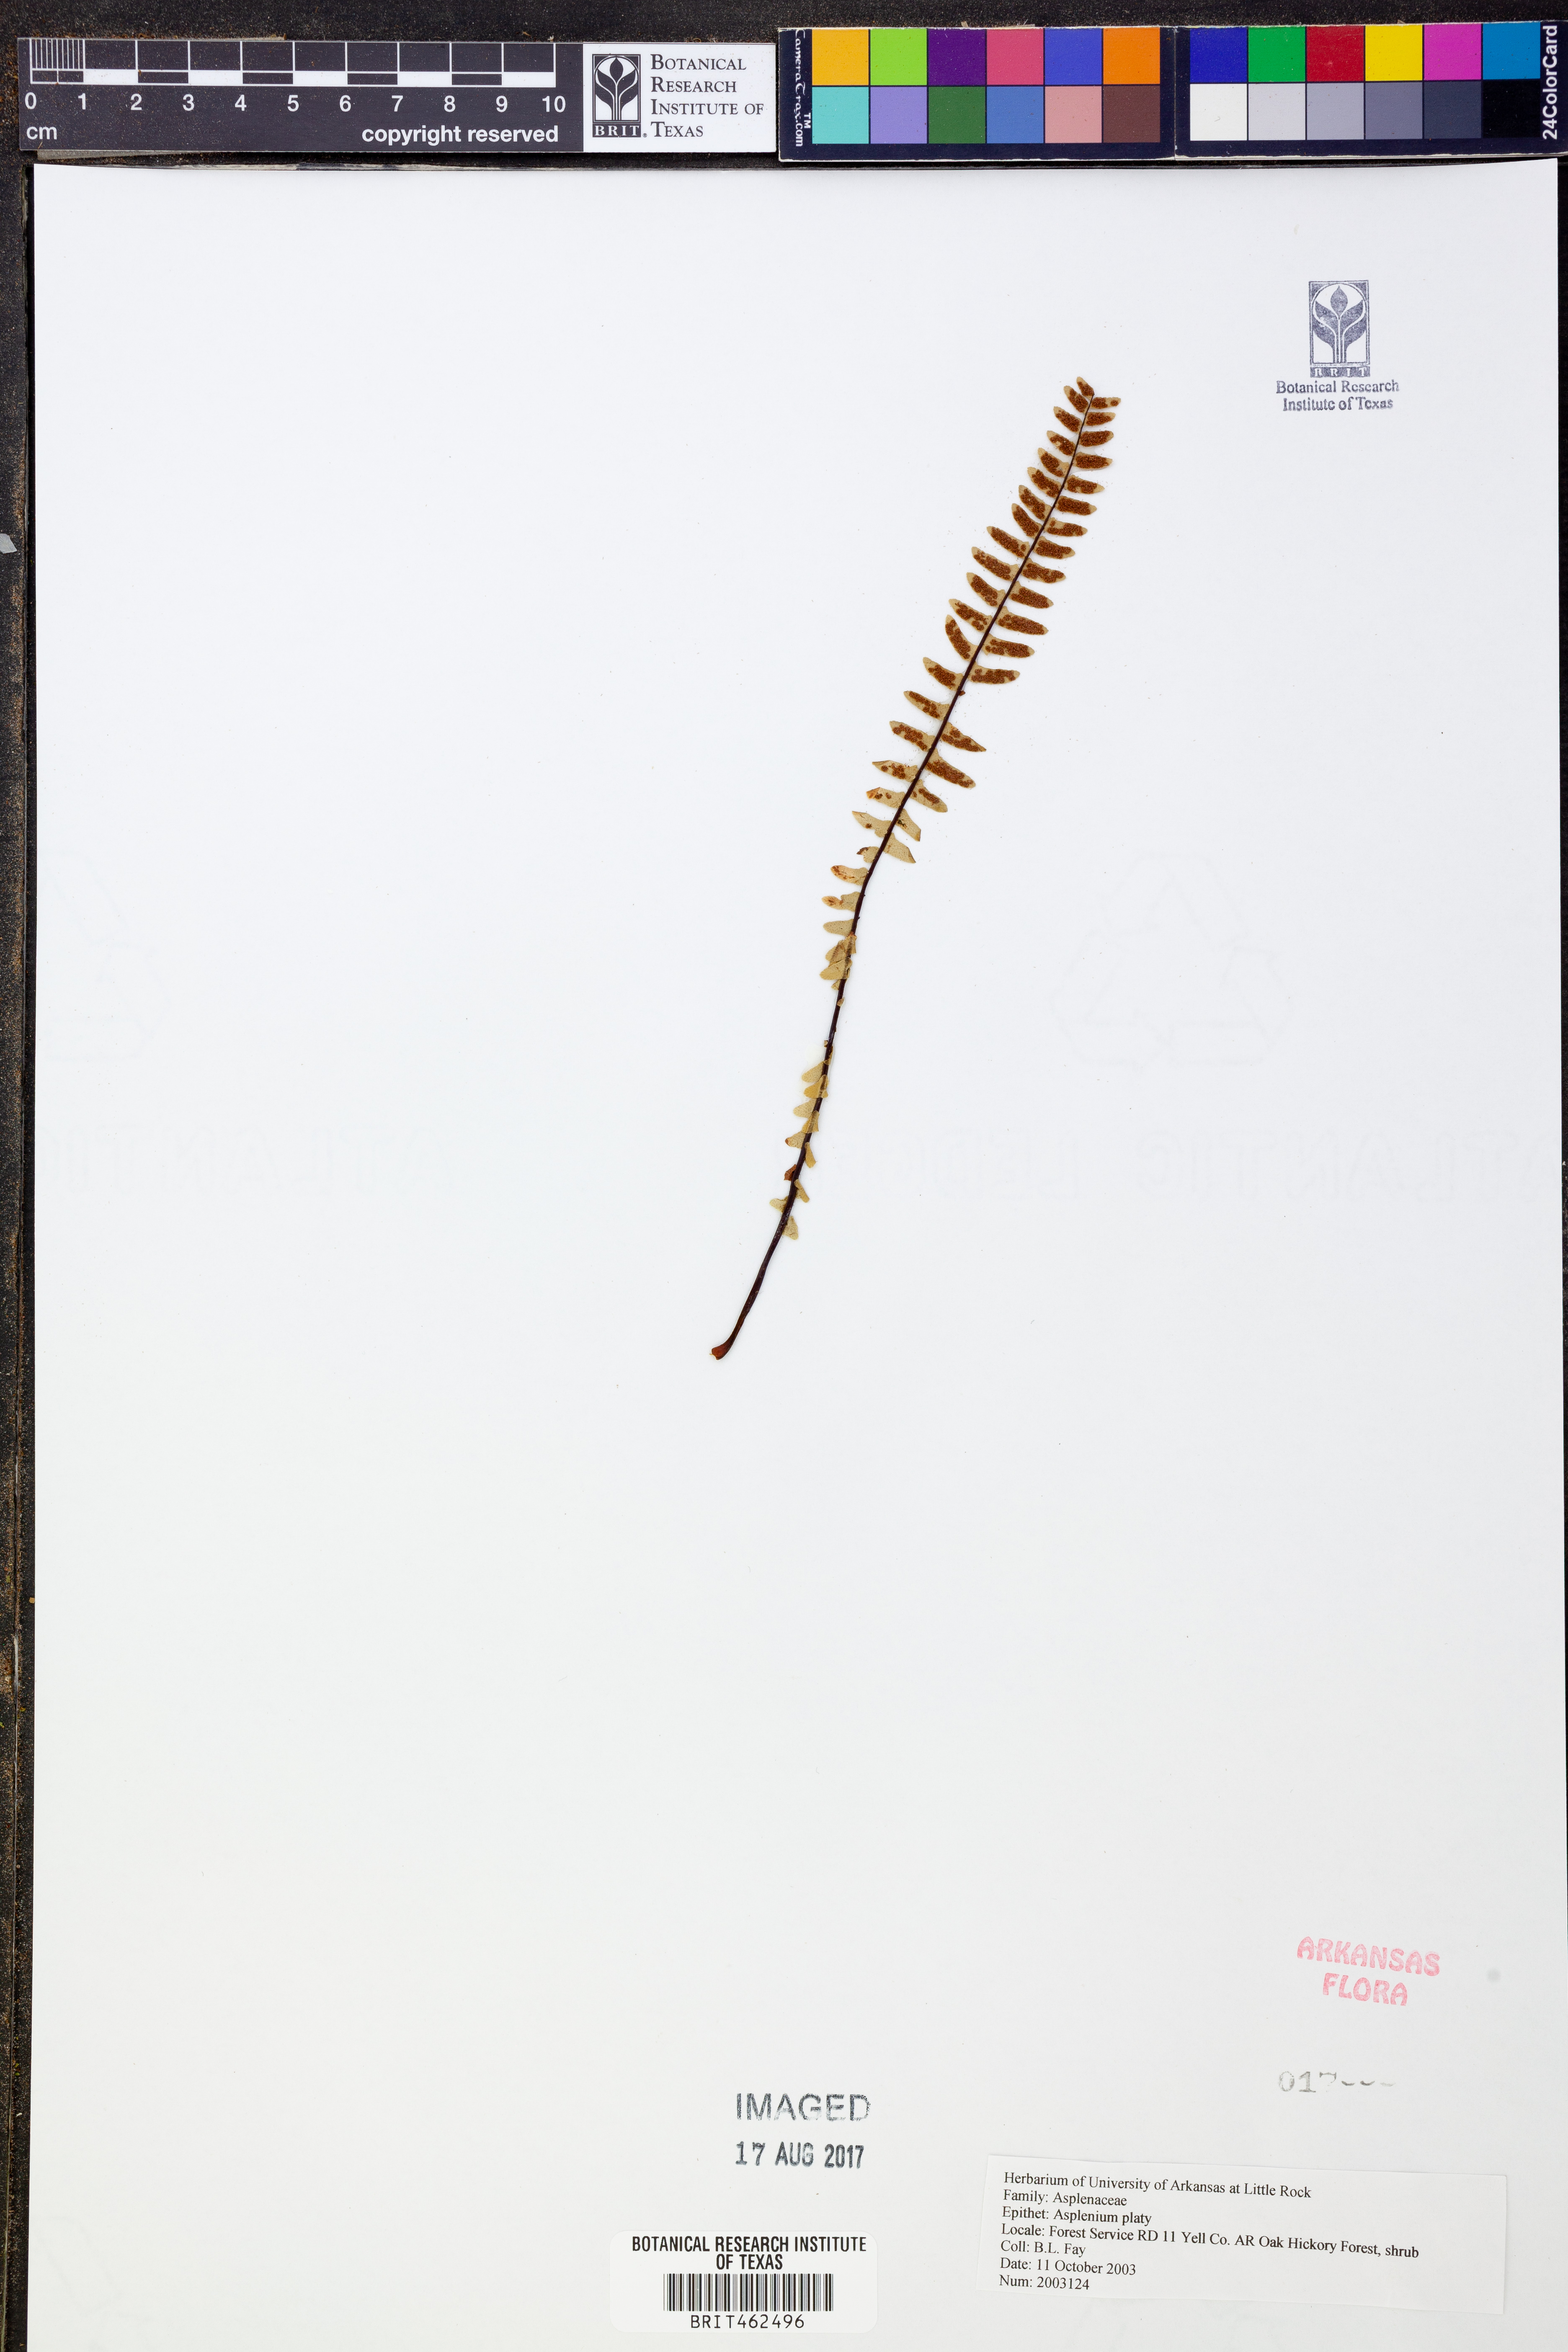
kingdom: Plantae
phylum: Tracheophyta
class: Polypodiopsida
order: Polypodiales
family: Aspleniaceae
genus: Asplenium
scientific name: Asplenium platyneuron
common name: Ebony spleenwort
